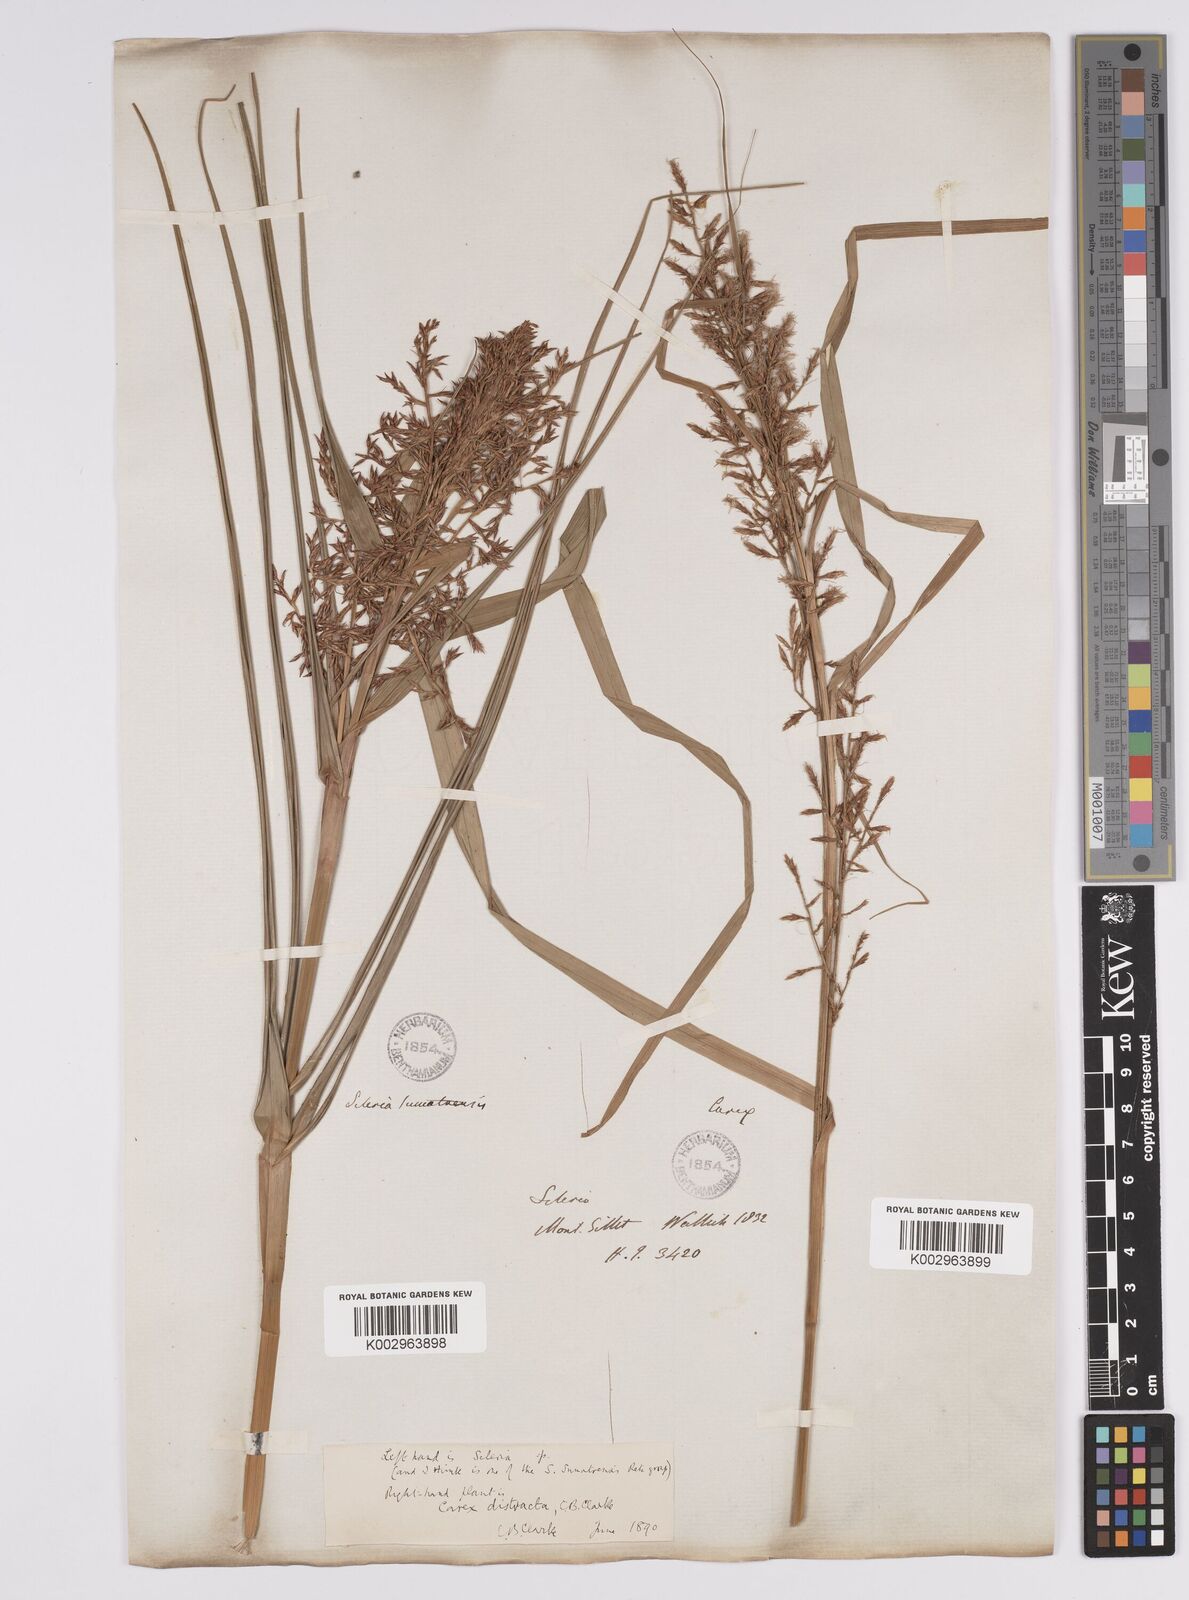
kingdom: Plantae
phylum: Tracheophyta
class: Liliopsida
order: Poales
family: Cyperaceae
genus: Scleria
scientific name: Scleria sumatrensis
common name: Sumatran scleria
